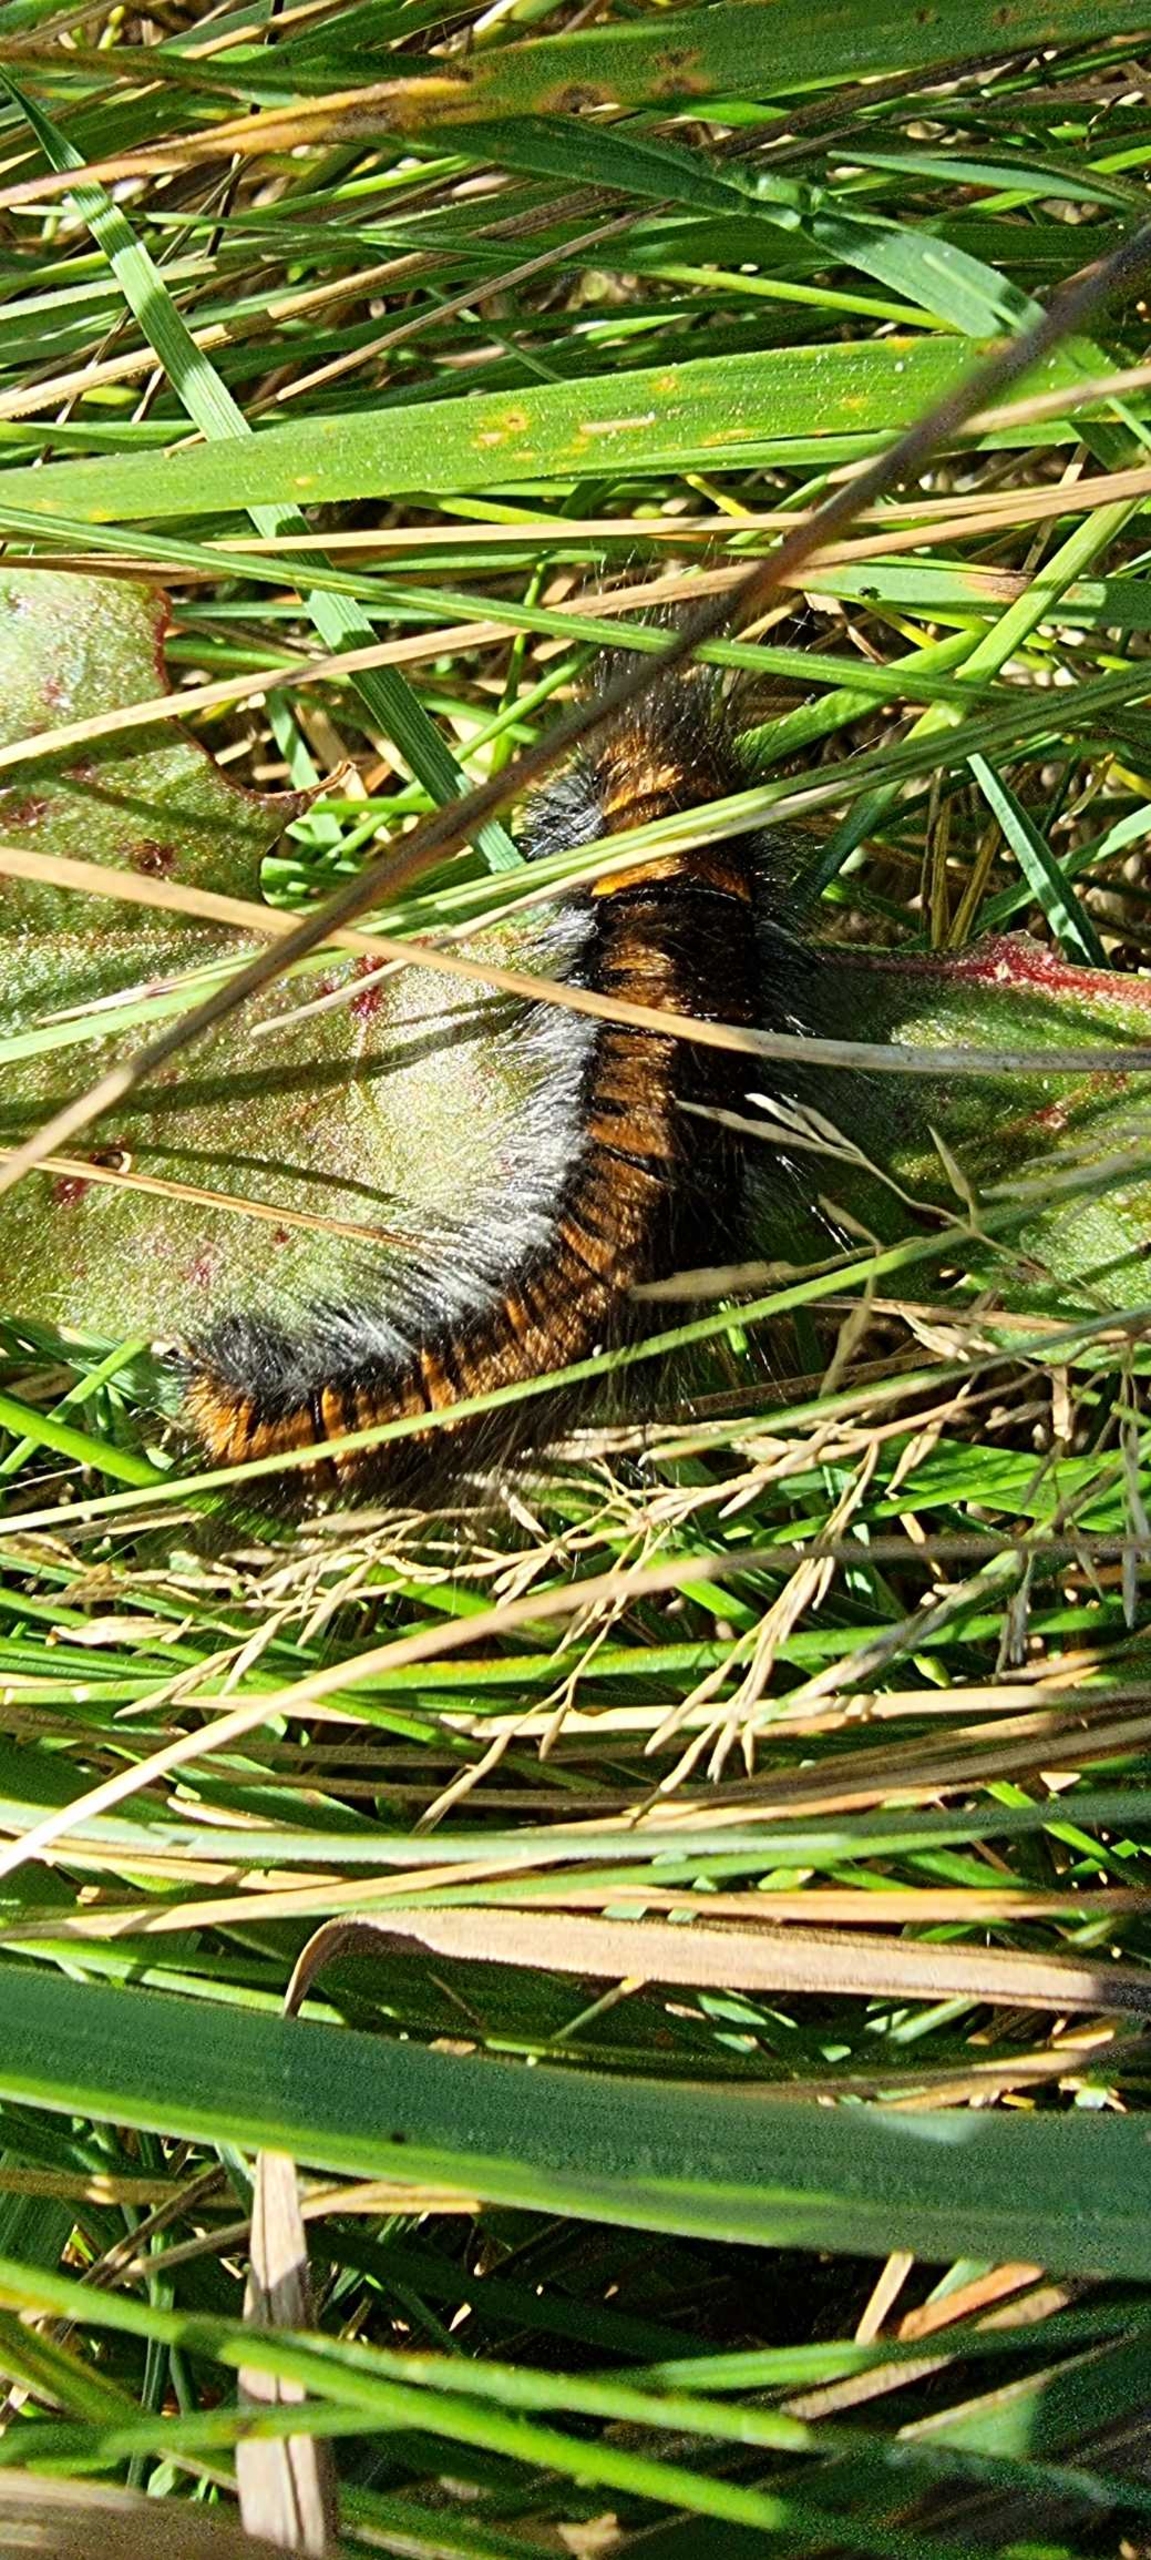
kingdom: Animalia
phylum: Arthropoda
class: Insecta
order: Lepidoptera
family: Lasiocampidae
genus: Macrothylacia
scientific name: Macrothylacia rubi
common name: Brombærspinder
